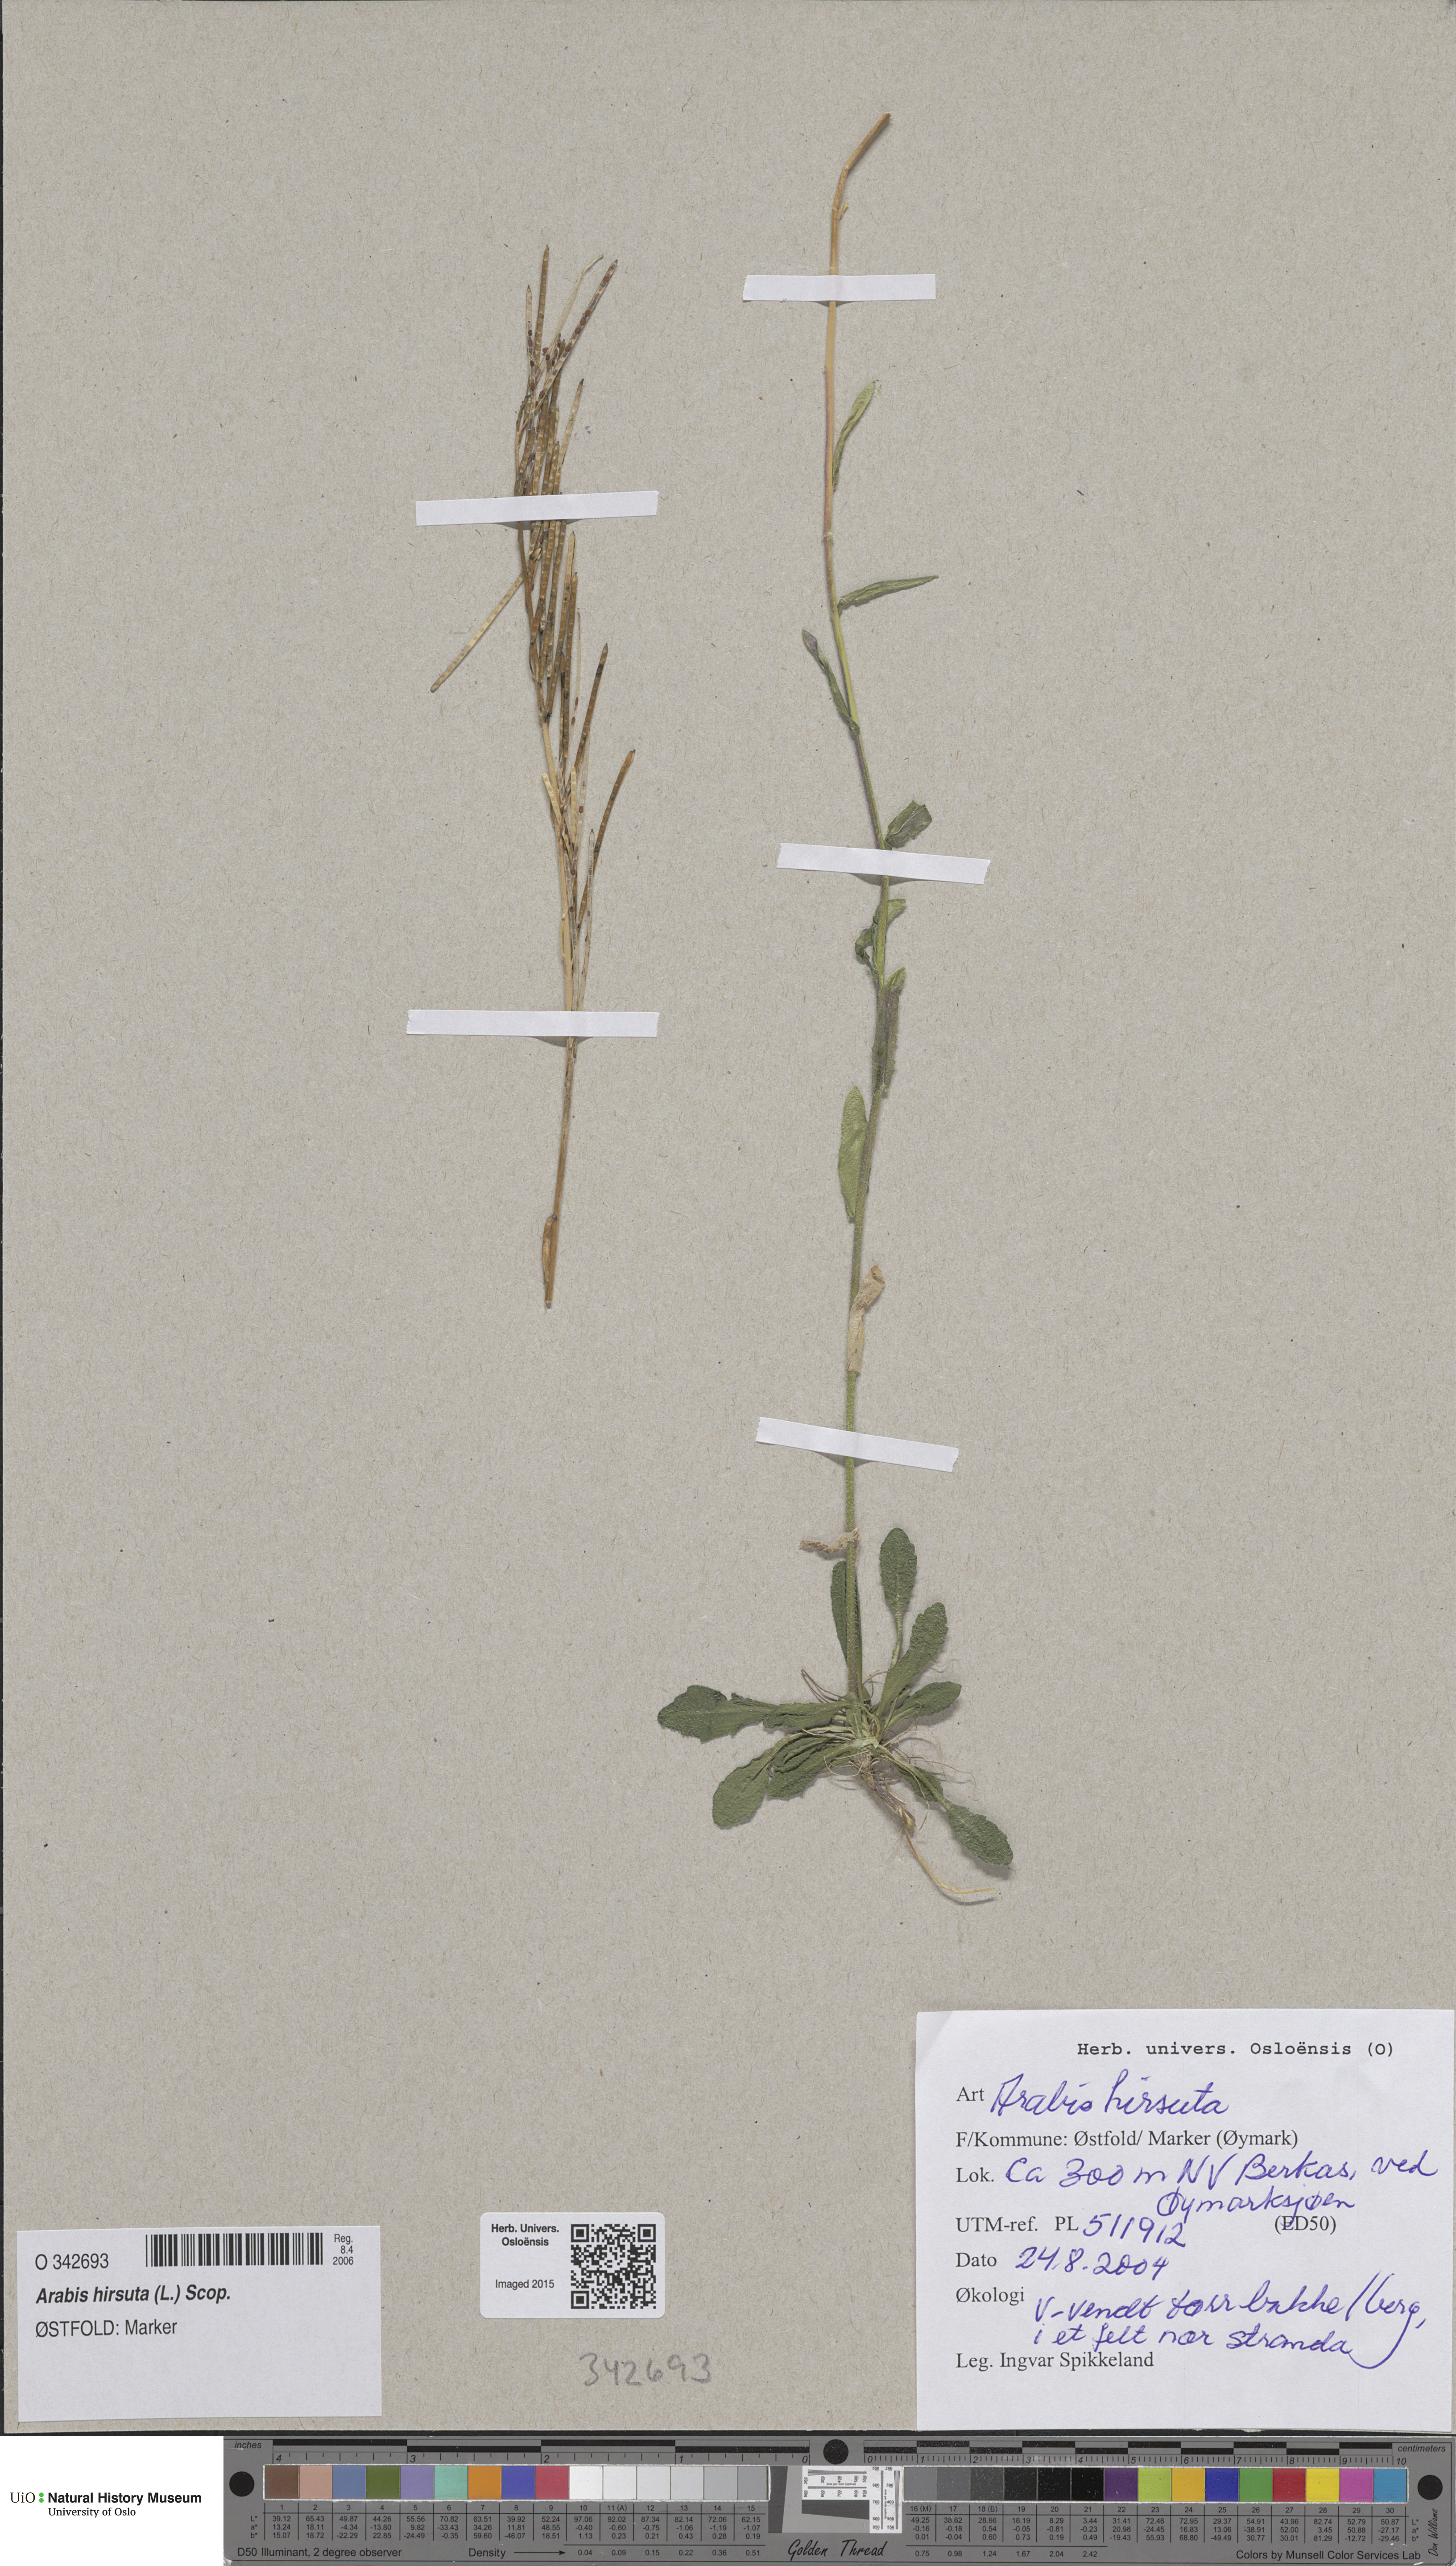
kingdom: Plantae
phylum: Tracheophyta
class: Magnoliopsida
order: Brassicales
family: Brassicaceae
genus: Arabis
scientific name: Arabis hirsuta
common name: Hairy rock-cress
